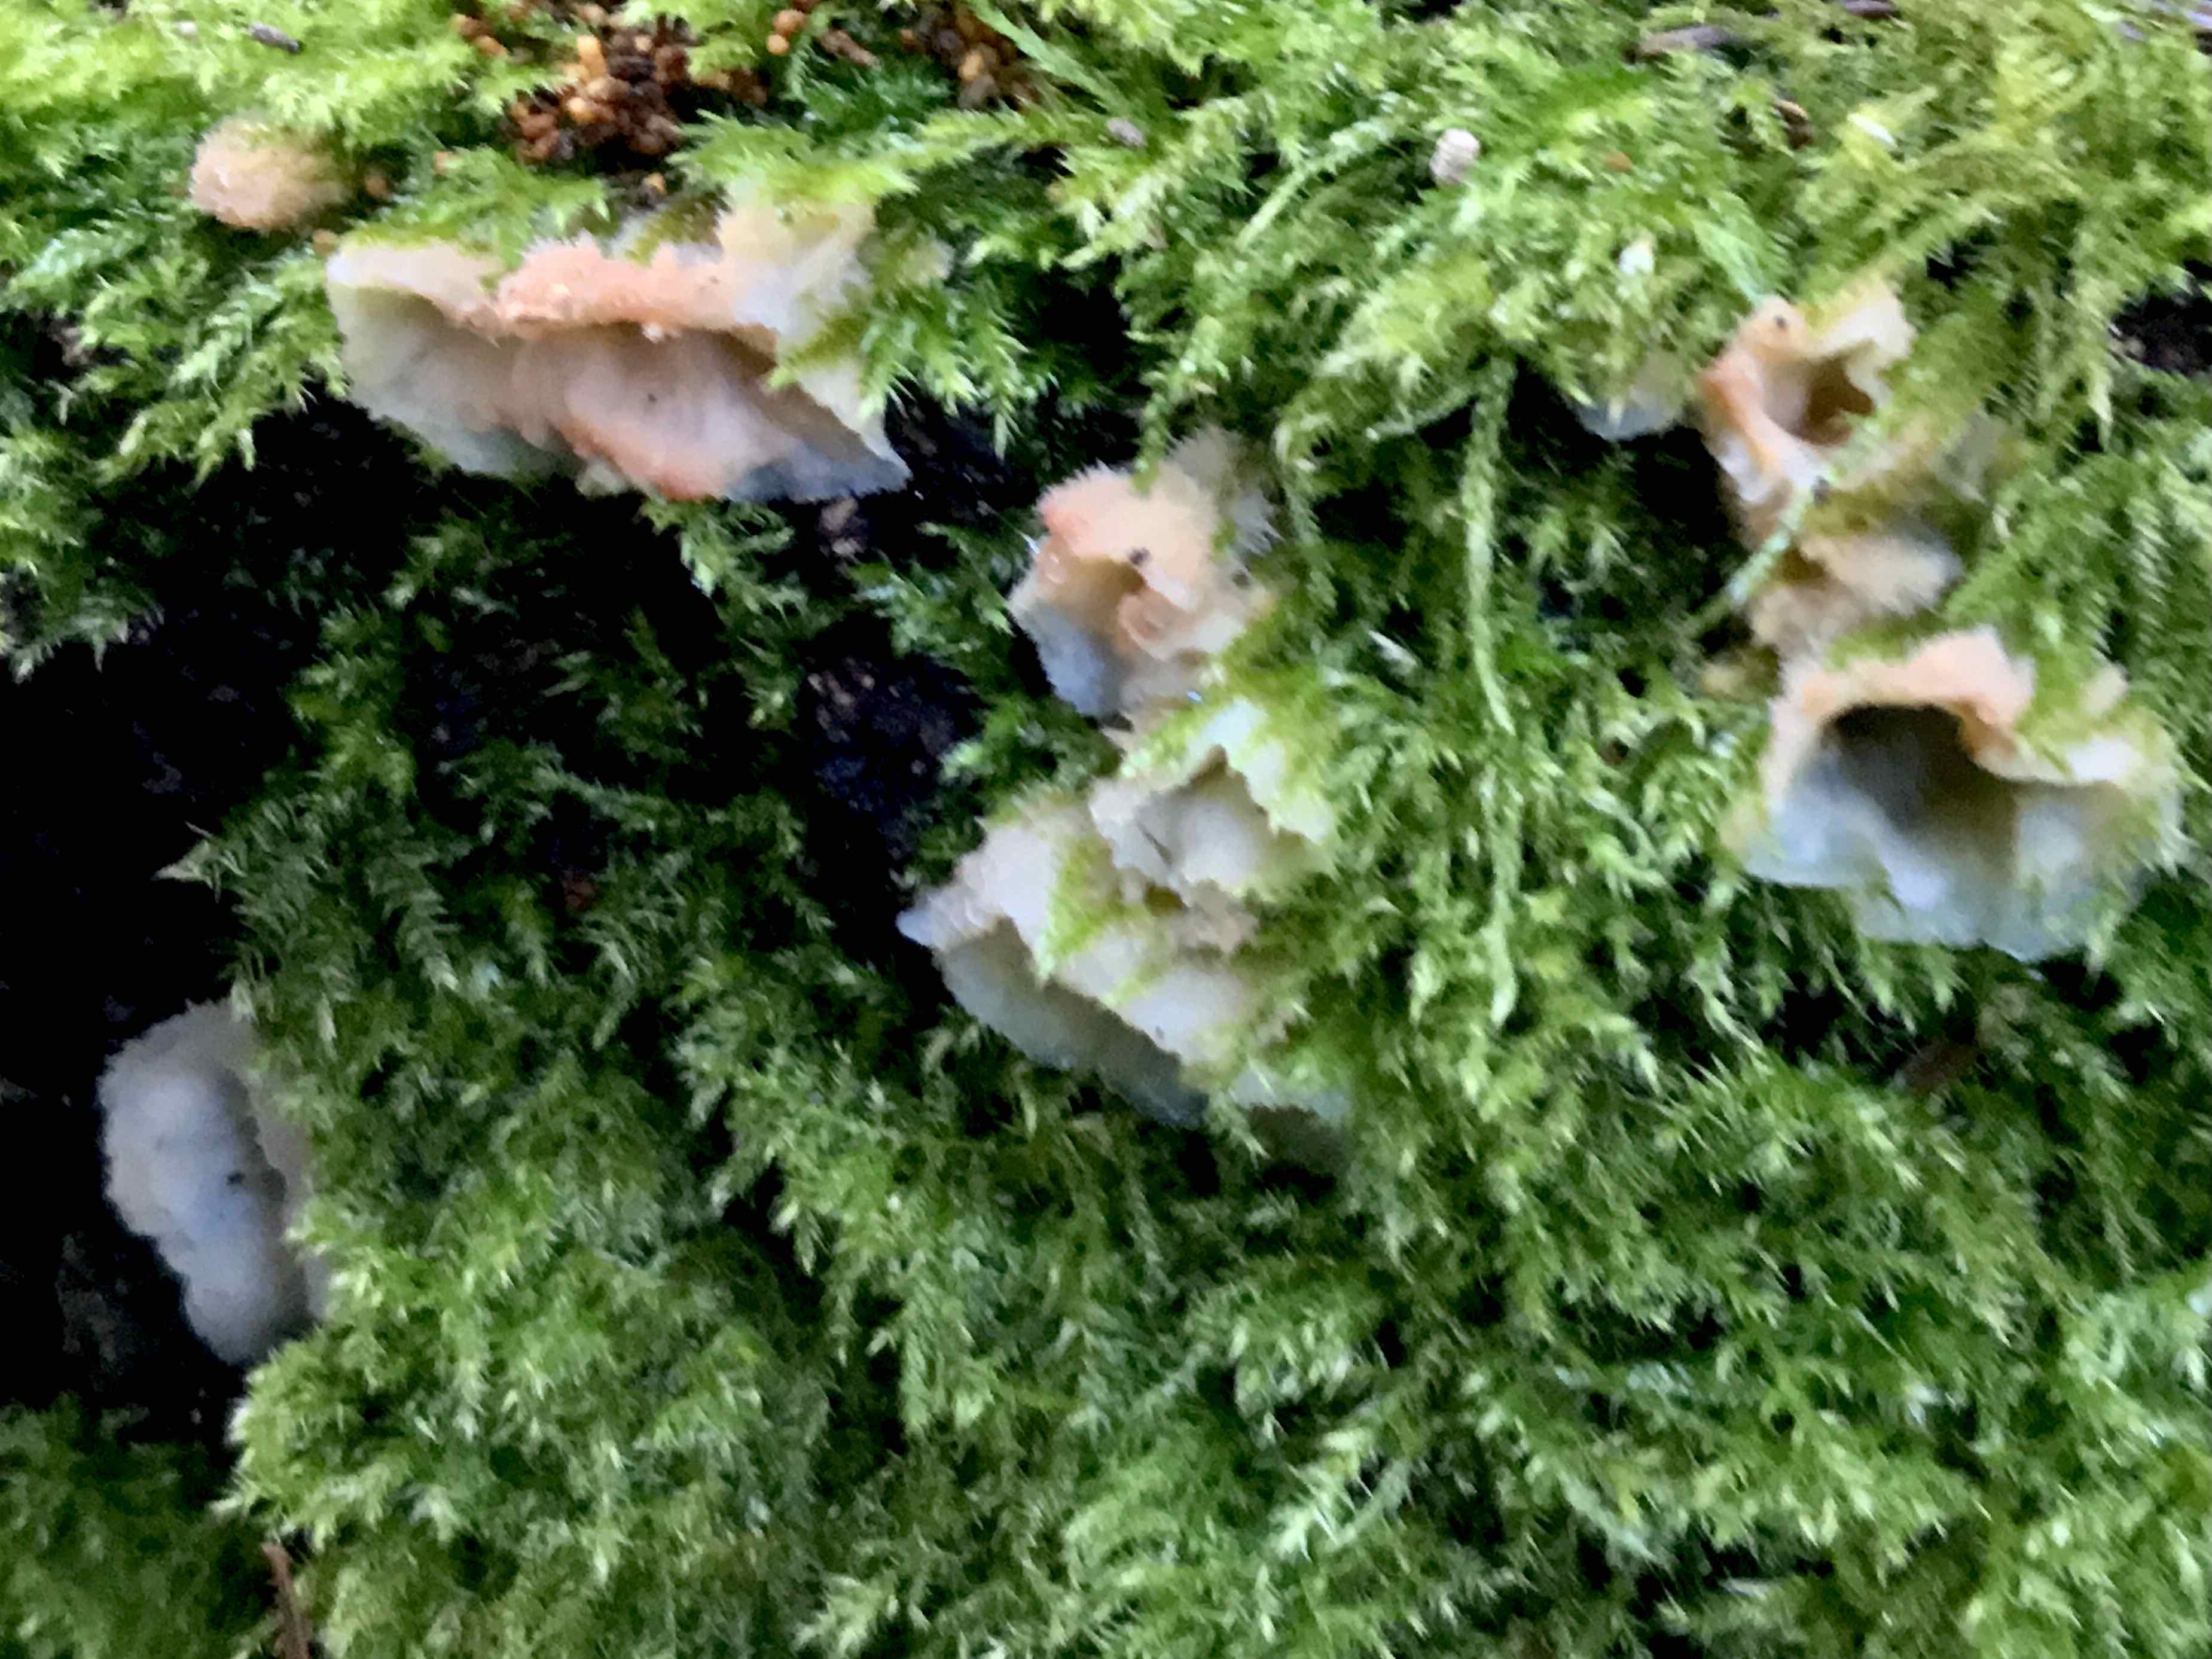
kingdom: Fungi
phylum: Basidiomycota
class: Agaricomycetes
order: Polyporales
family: Meruliaceae
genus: Phlebia
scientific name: Phlebia tremellosa
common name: bævrende åresvamp
